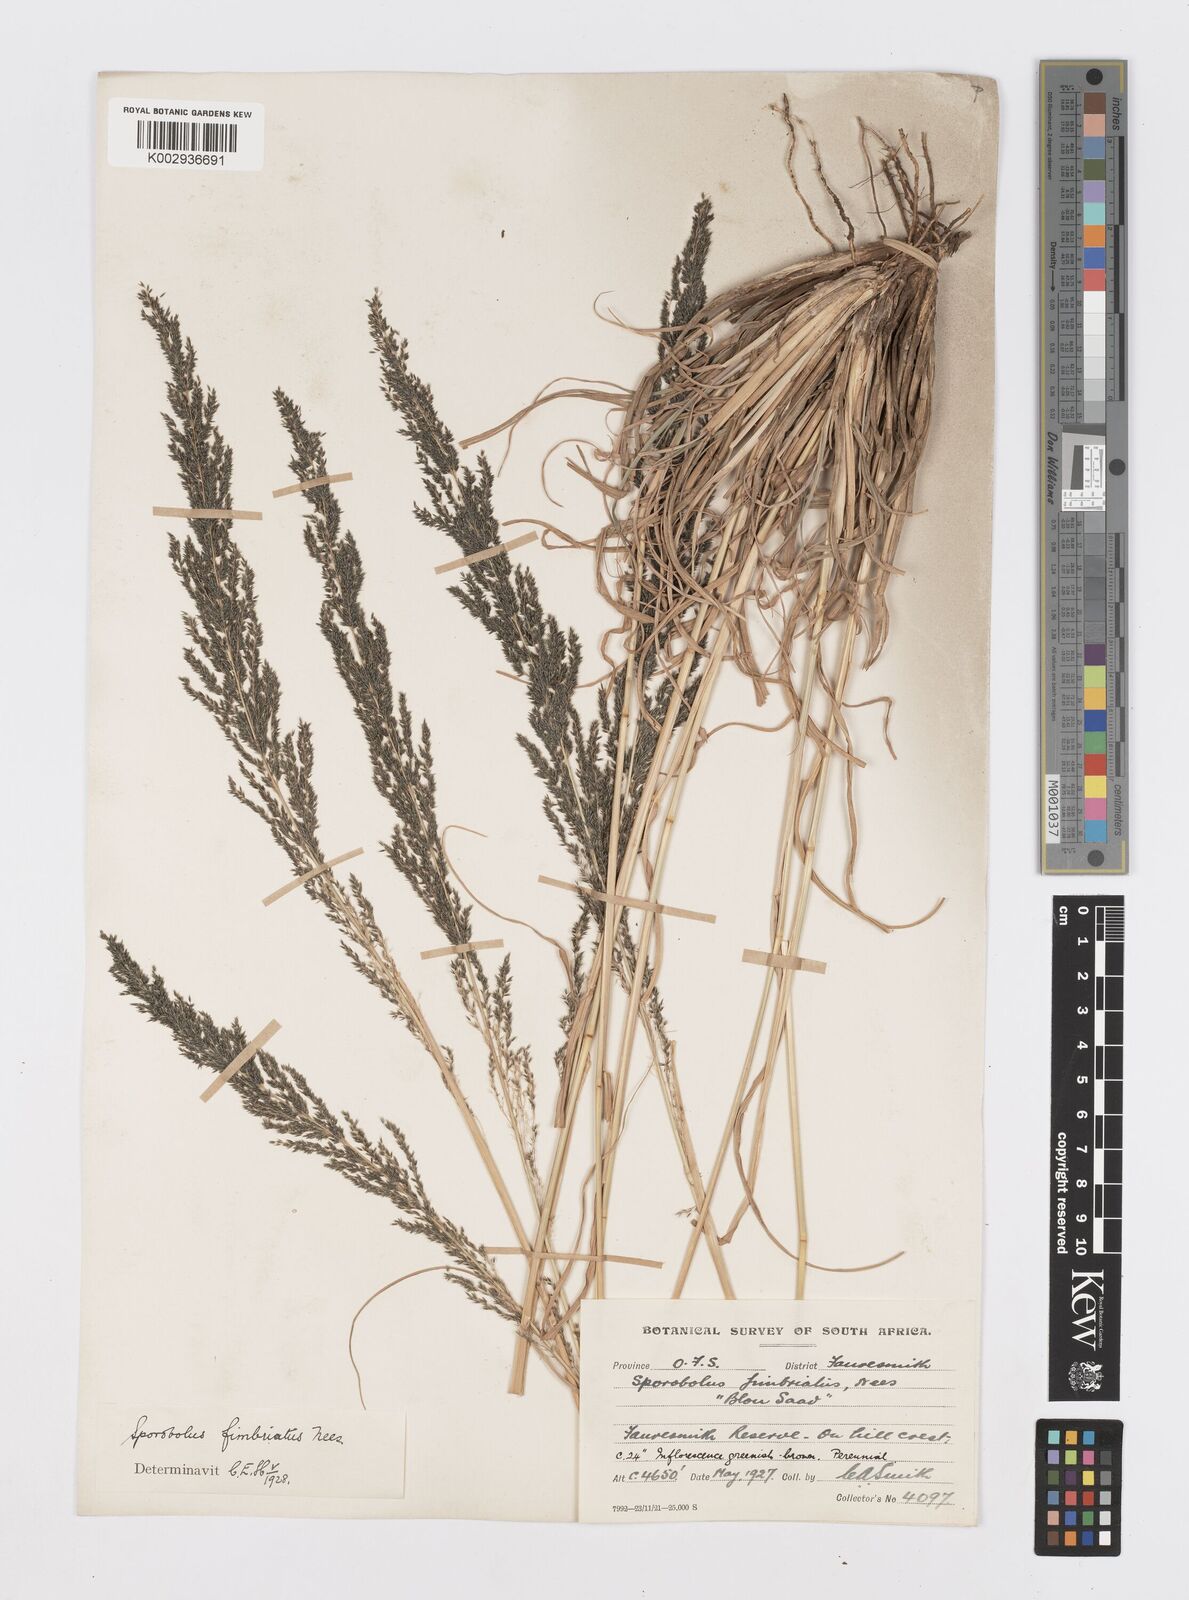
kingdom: Plantae
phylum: Tracheophyta
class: Liliopsida
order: Poales
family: Poaceae
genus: Sporobolus
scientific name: Sporobolus fimbriatus
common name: Fringed dropseed
